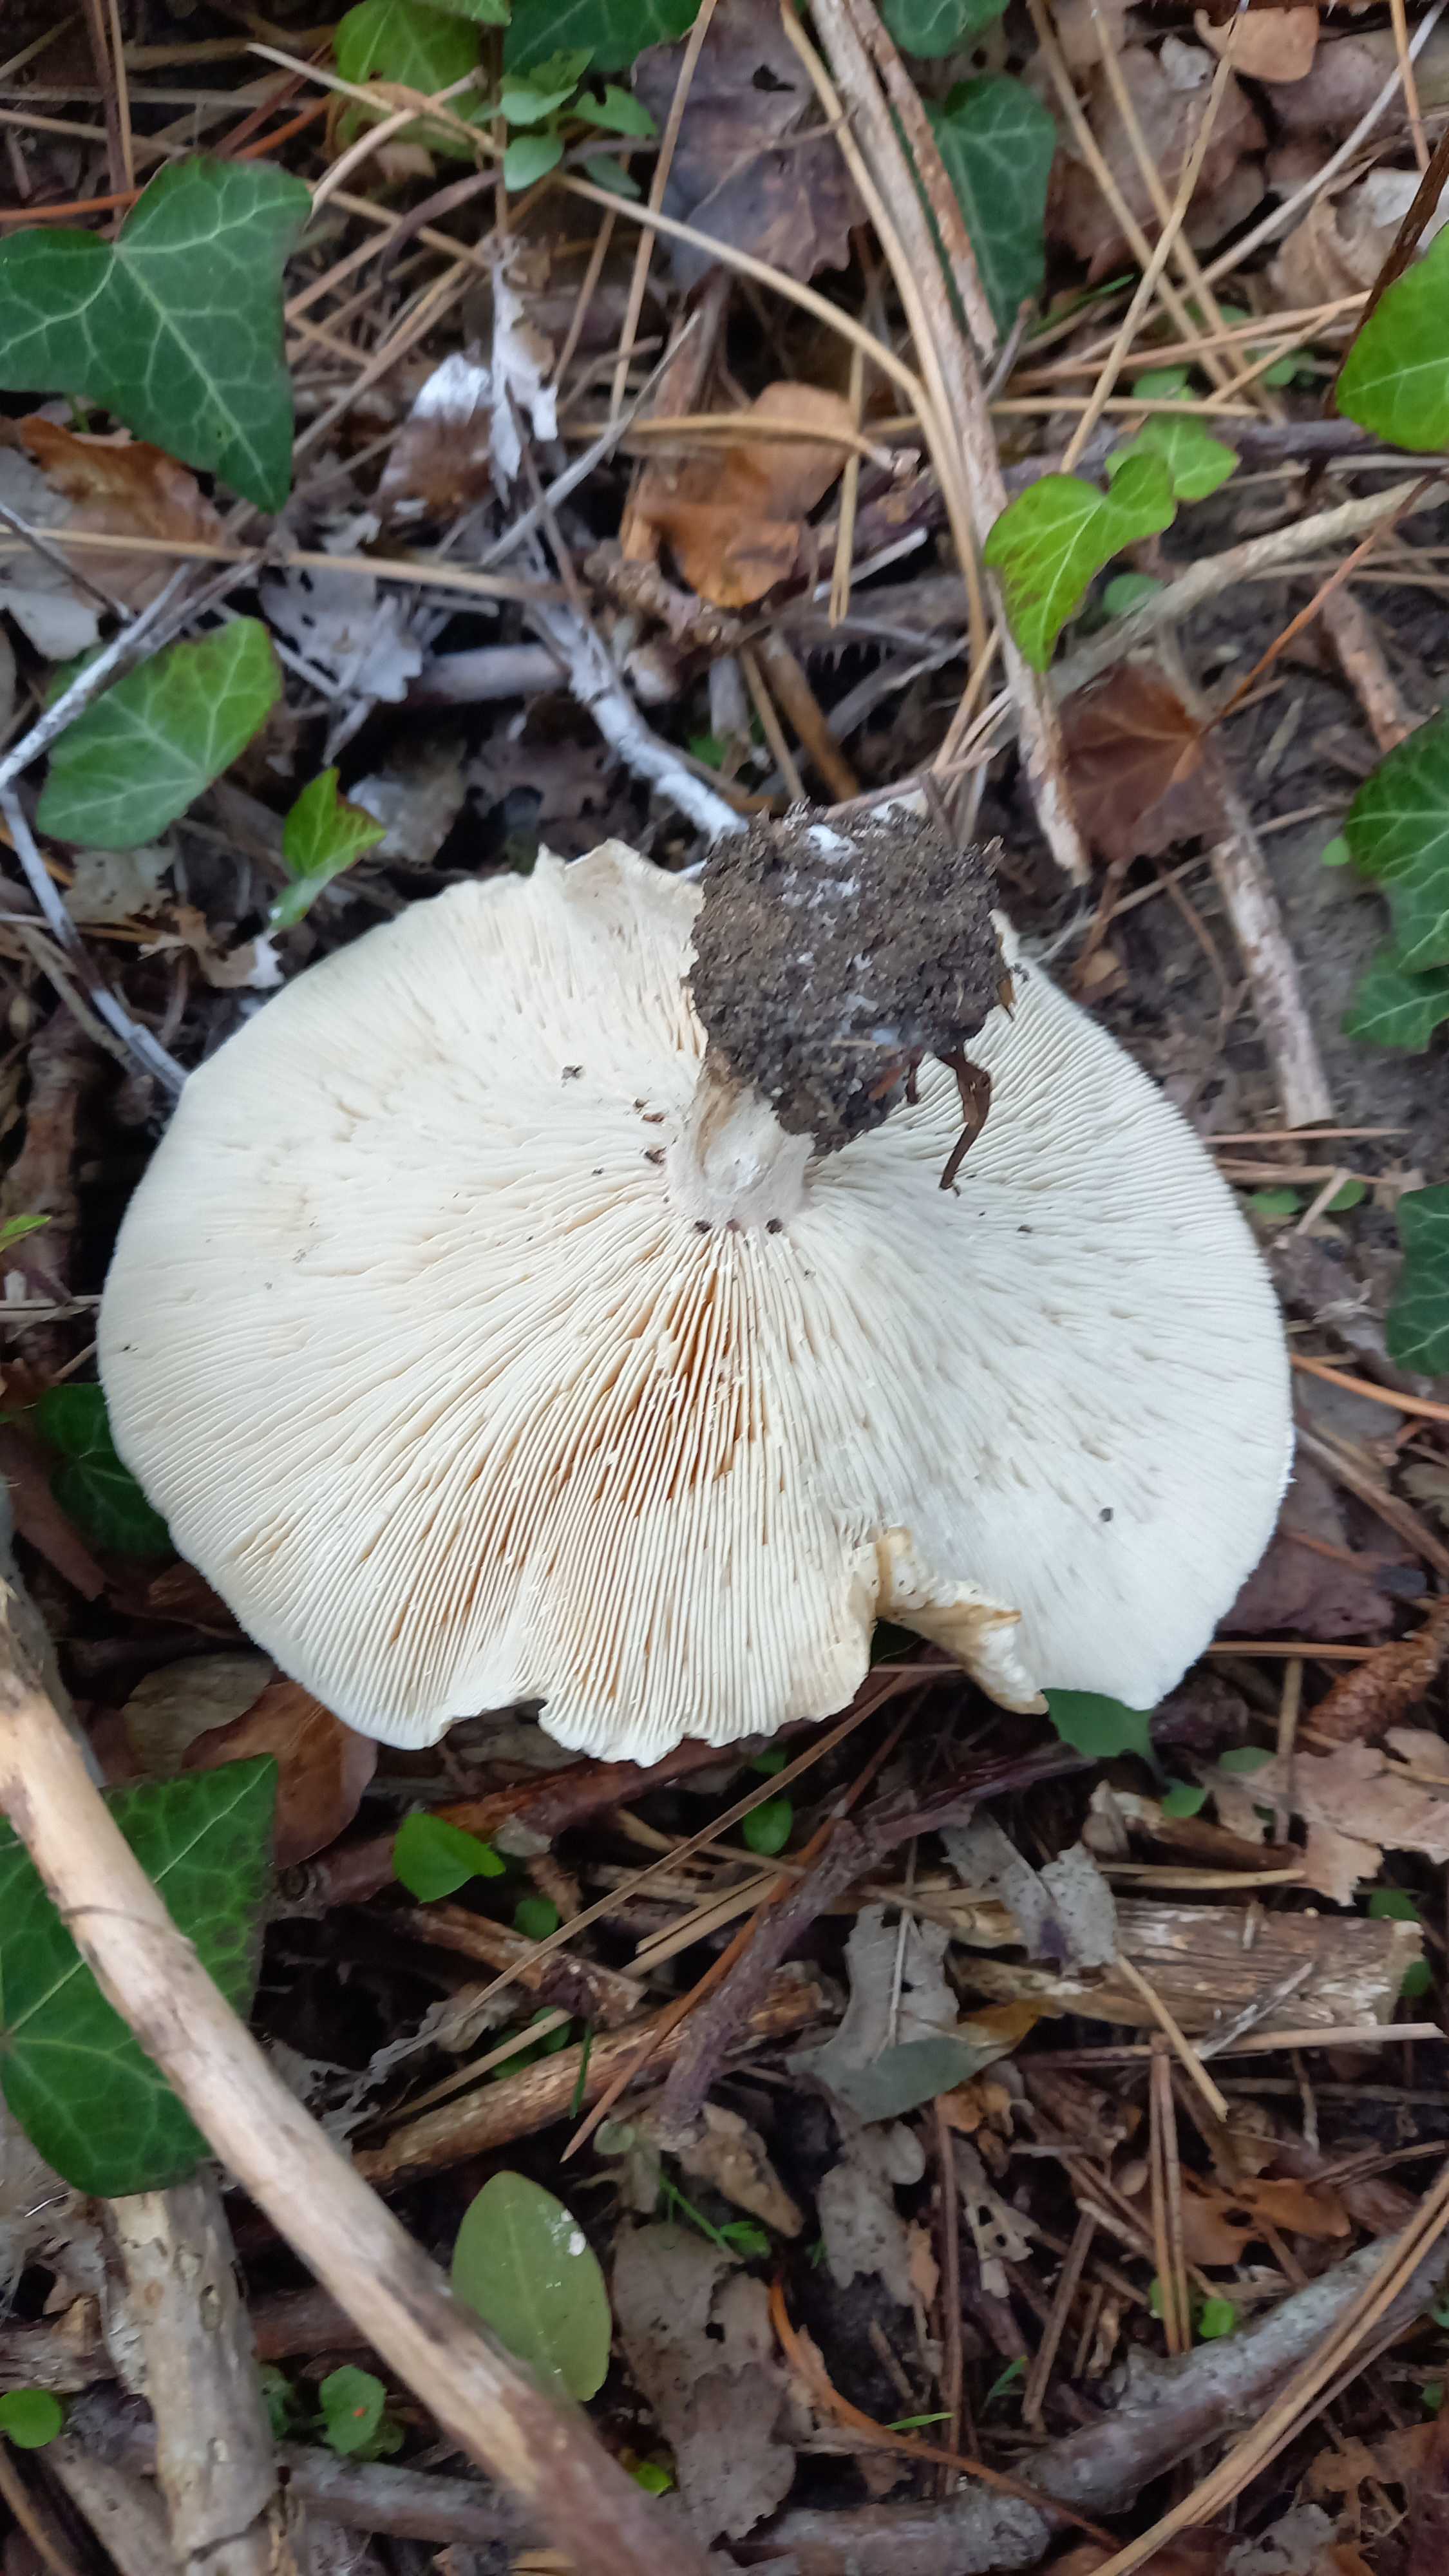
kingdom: Fungi
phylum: Basidiomycota
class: Agaricomycetes
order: Agaricales
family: Tricholomataceae
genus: Melanoleuca
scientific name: Melanoleuca grammopodia
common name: stribestokket munkehat
